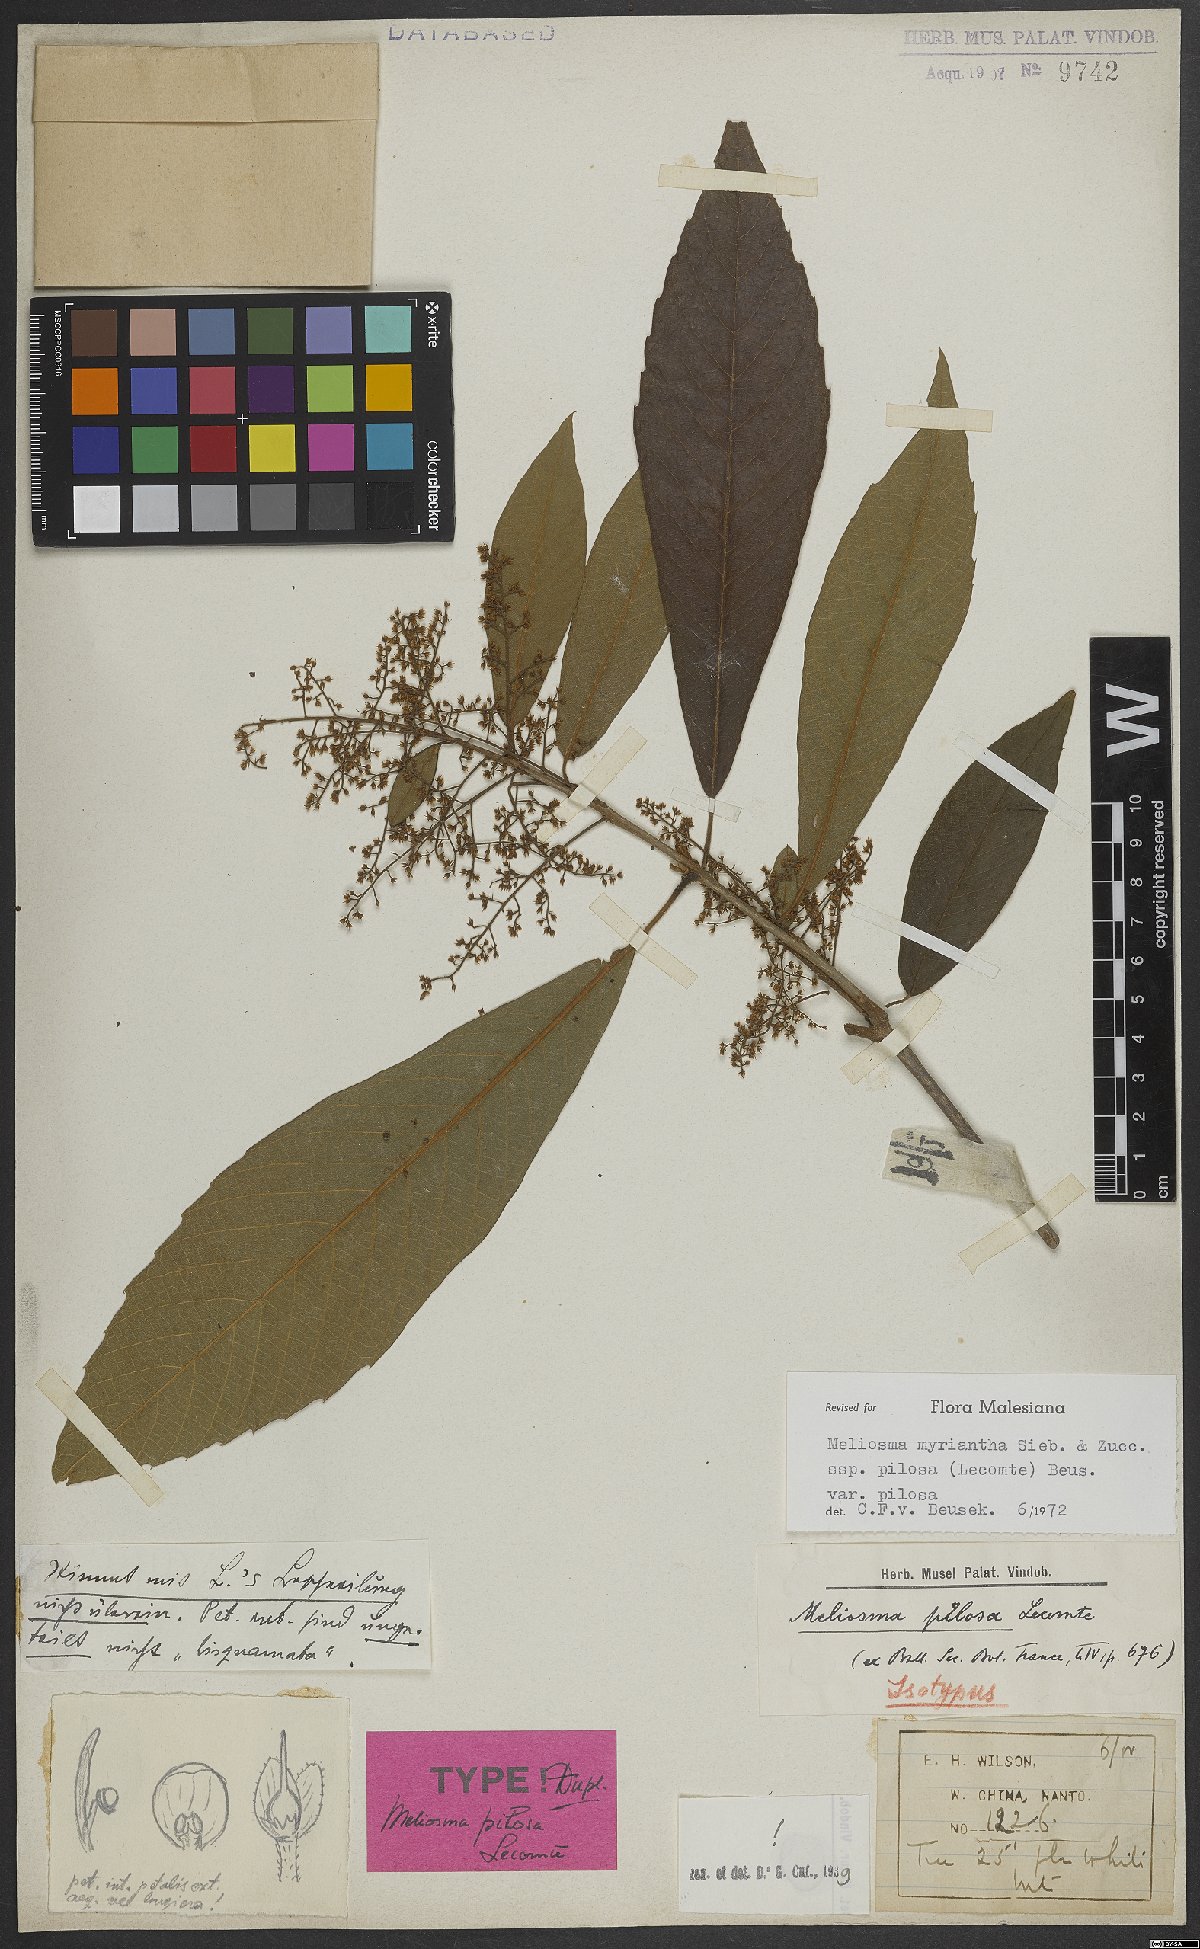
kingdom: Plantae
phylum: Tracheophyta
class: Magnoliopsida
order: Proteales
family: Sabiaceae
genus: Meliosma
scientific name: Meliosma myriantha
